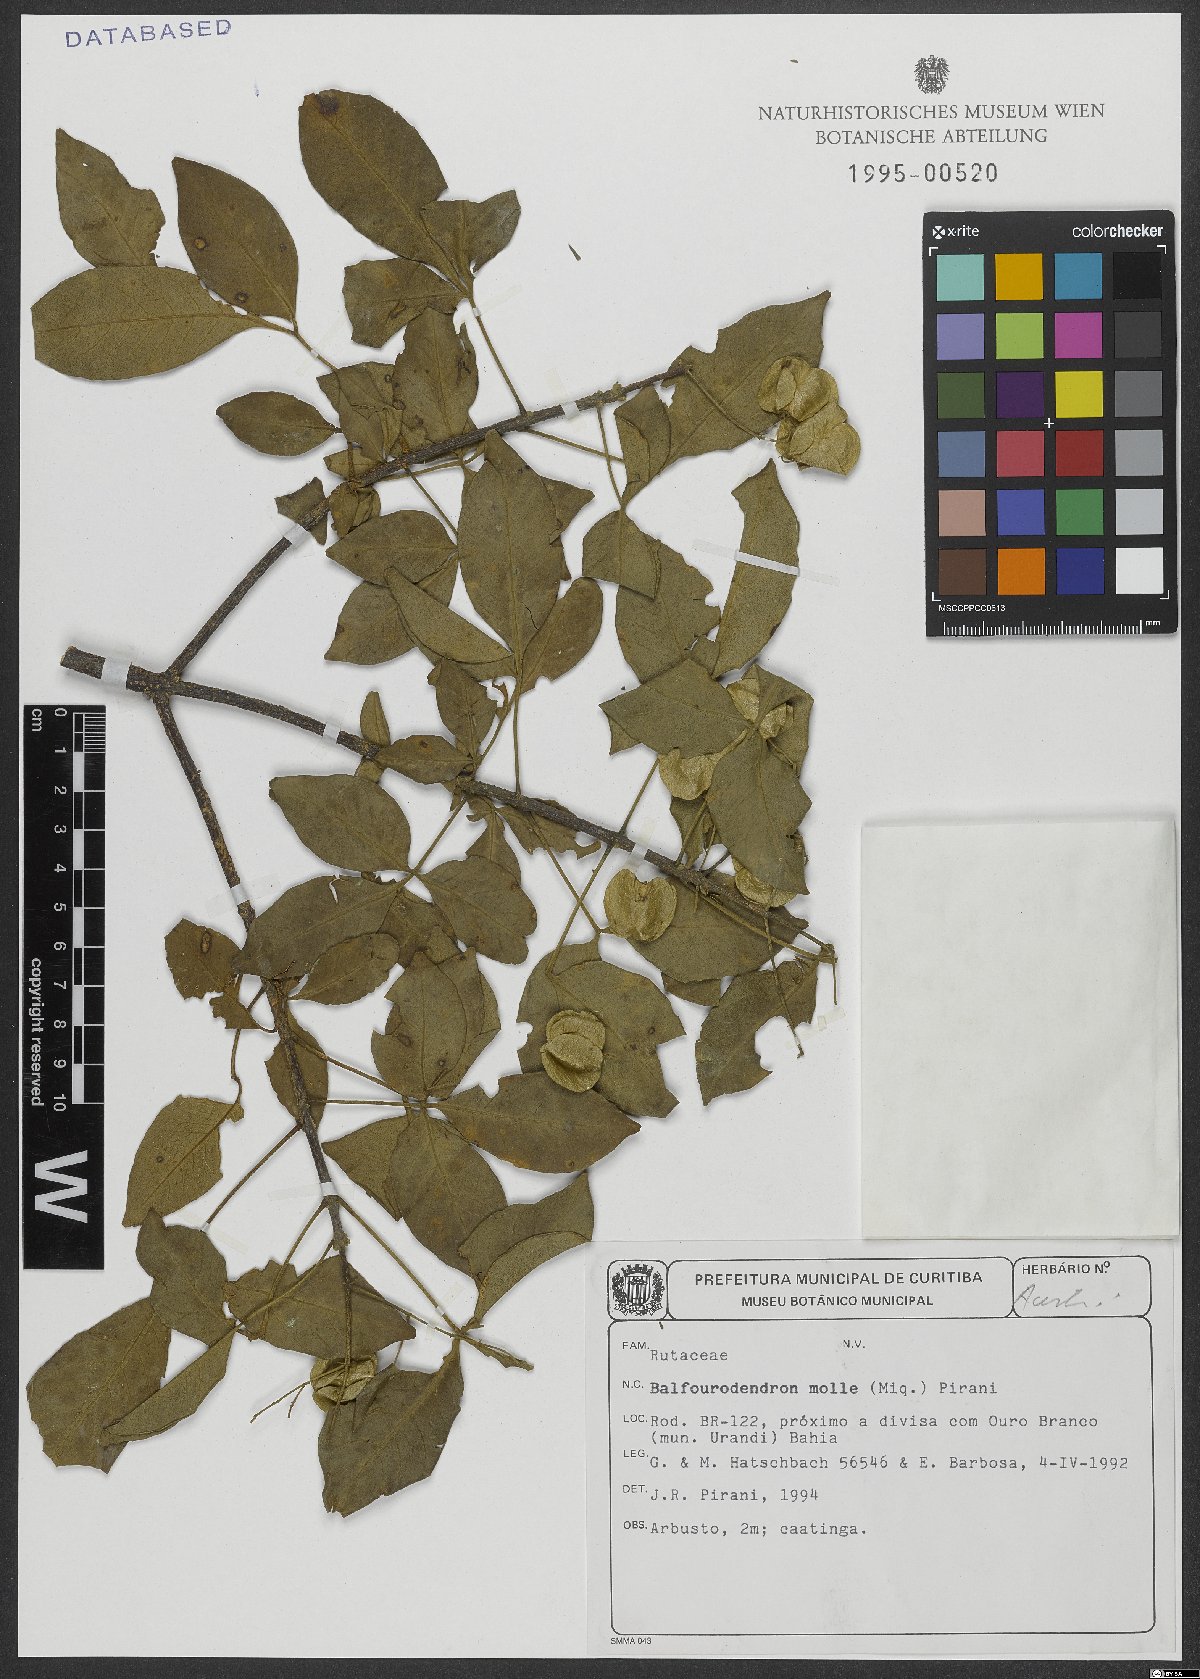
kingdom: Plantae
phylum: Tracheophyta
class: Magnoliopsida
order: Sapindales
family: Rutaceae
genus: Balfourodendron
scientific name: Balfourodendron molle
